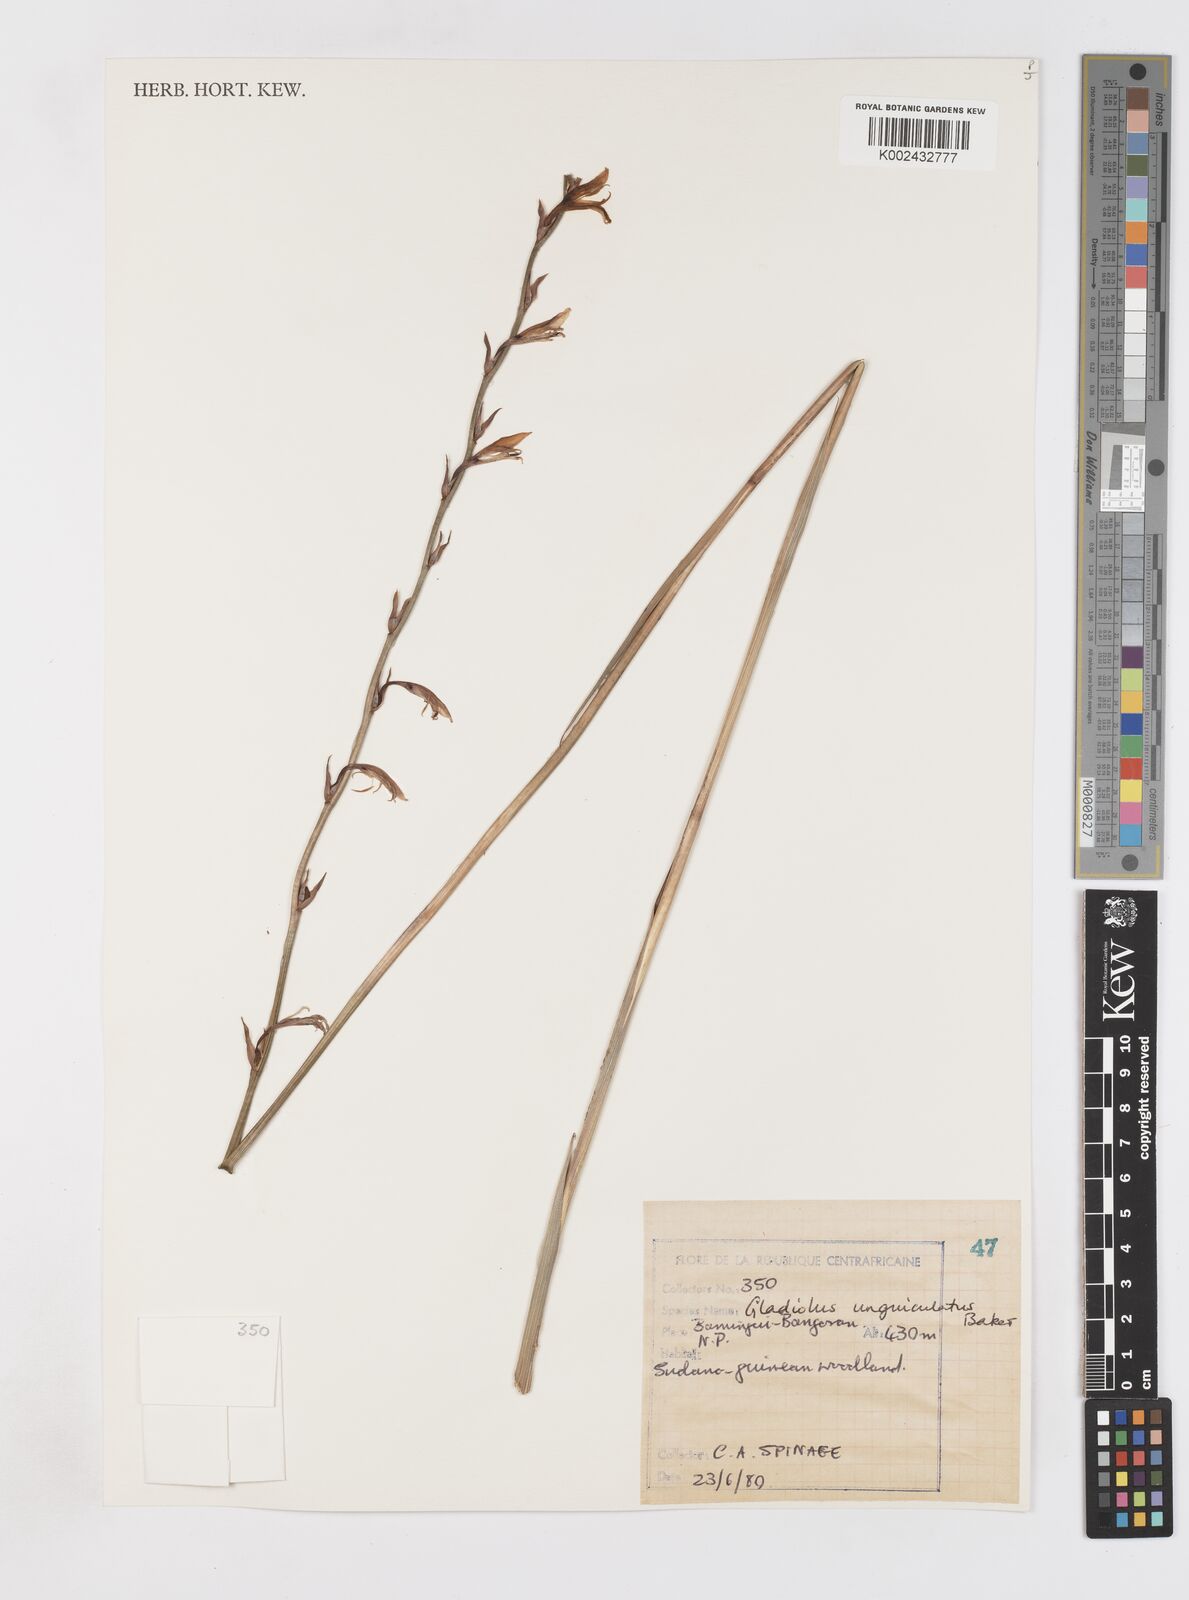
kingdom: Plantae
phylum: Tracheophyta
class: Liliopsida
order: Asparagales
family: Iridaceae
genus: Gladiolus
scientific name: Gladiolus unguiculatus
